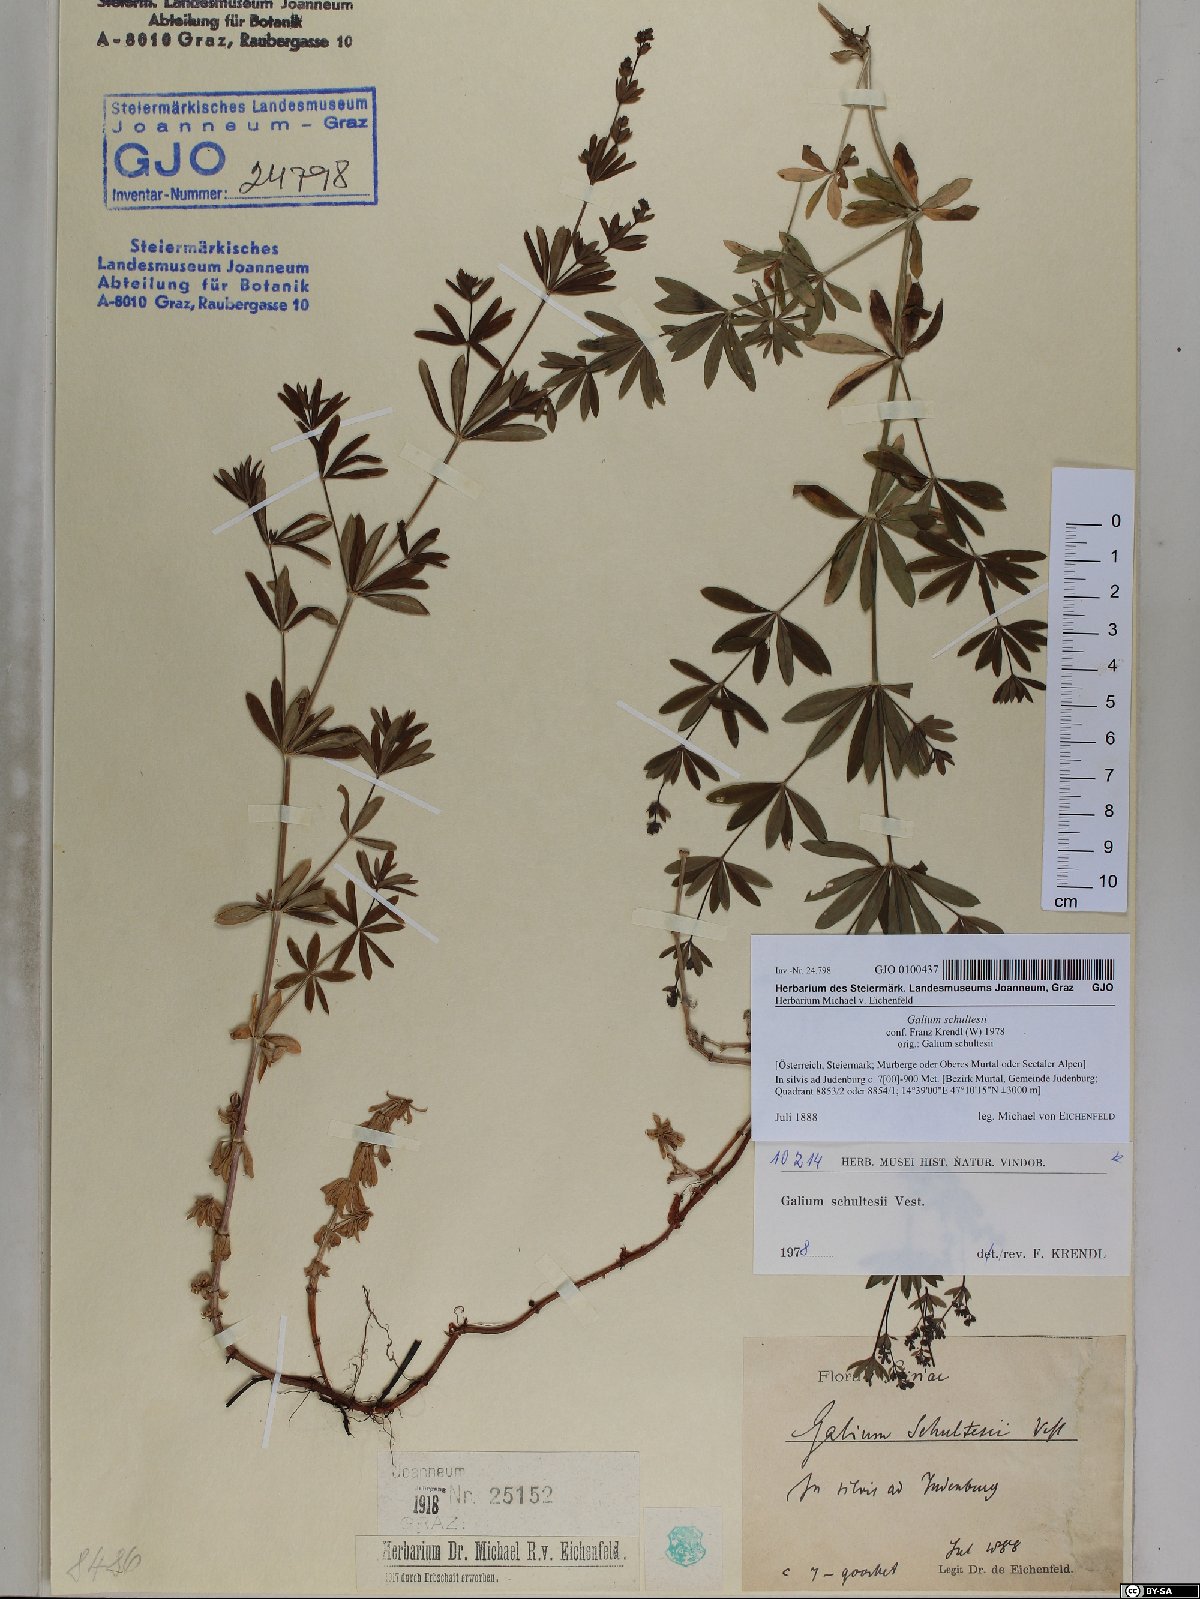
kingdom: Plantae
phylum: Tracheophyta
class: Magnoliopsida
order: Gentianales
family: Rubiaceae
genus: Galium
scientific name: Galium intermedium
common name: Bedstraw
